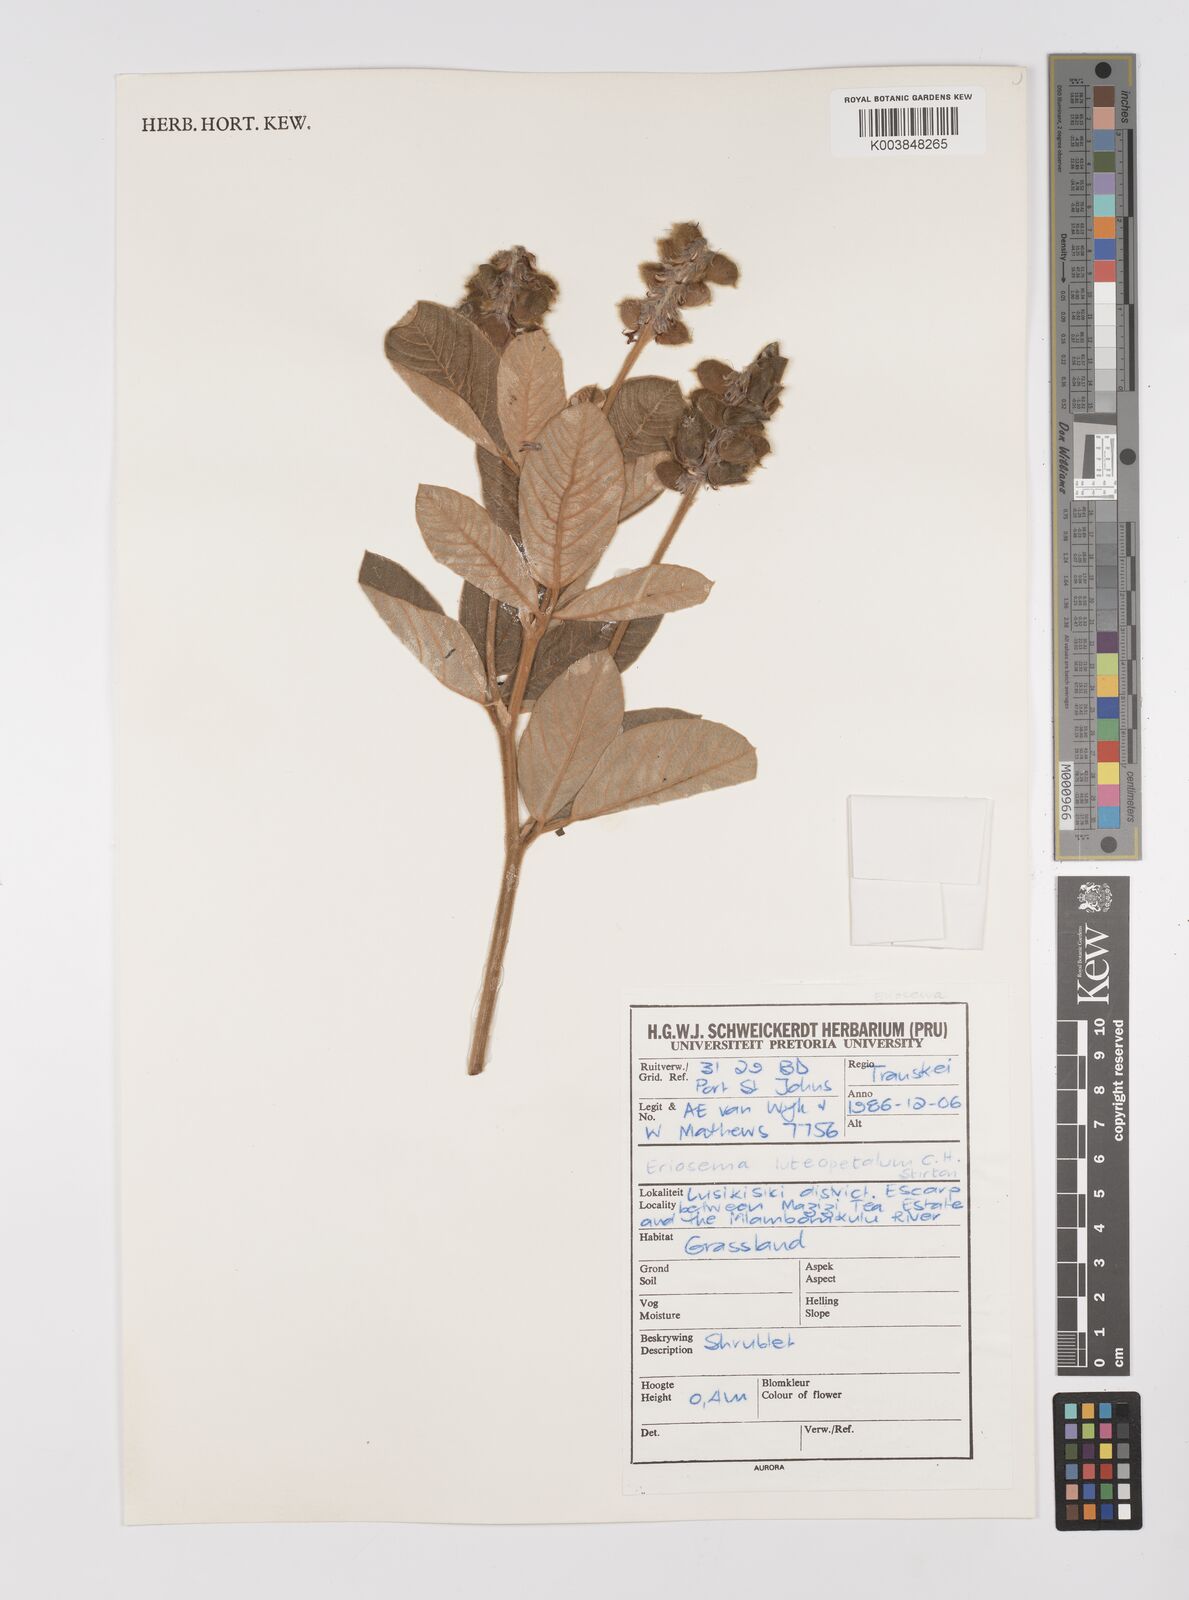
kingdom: Plantae
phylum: Tracheophyta
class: Magnoliopsida
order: Fabales
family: Fabaceae
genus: Eriosema
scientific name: Eriosema luteopetalum
